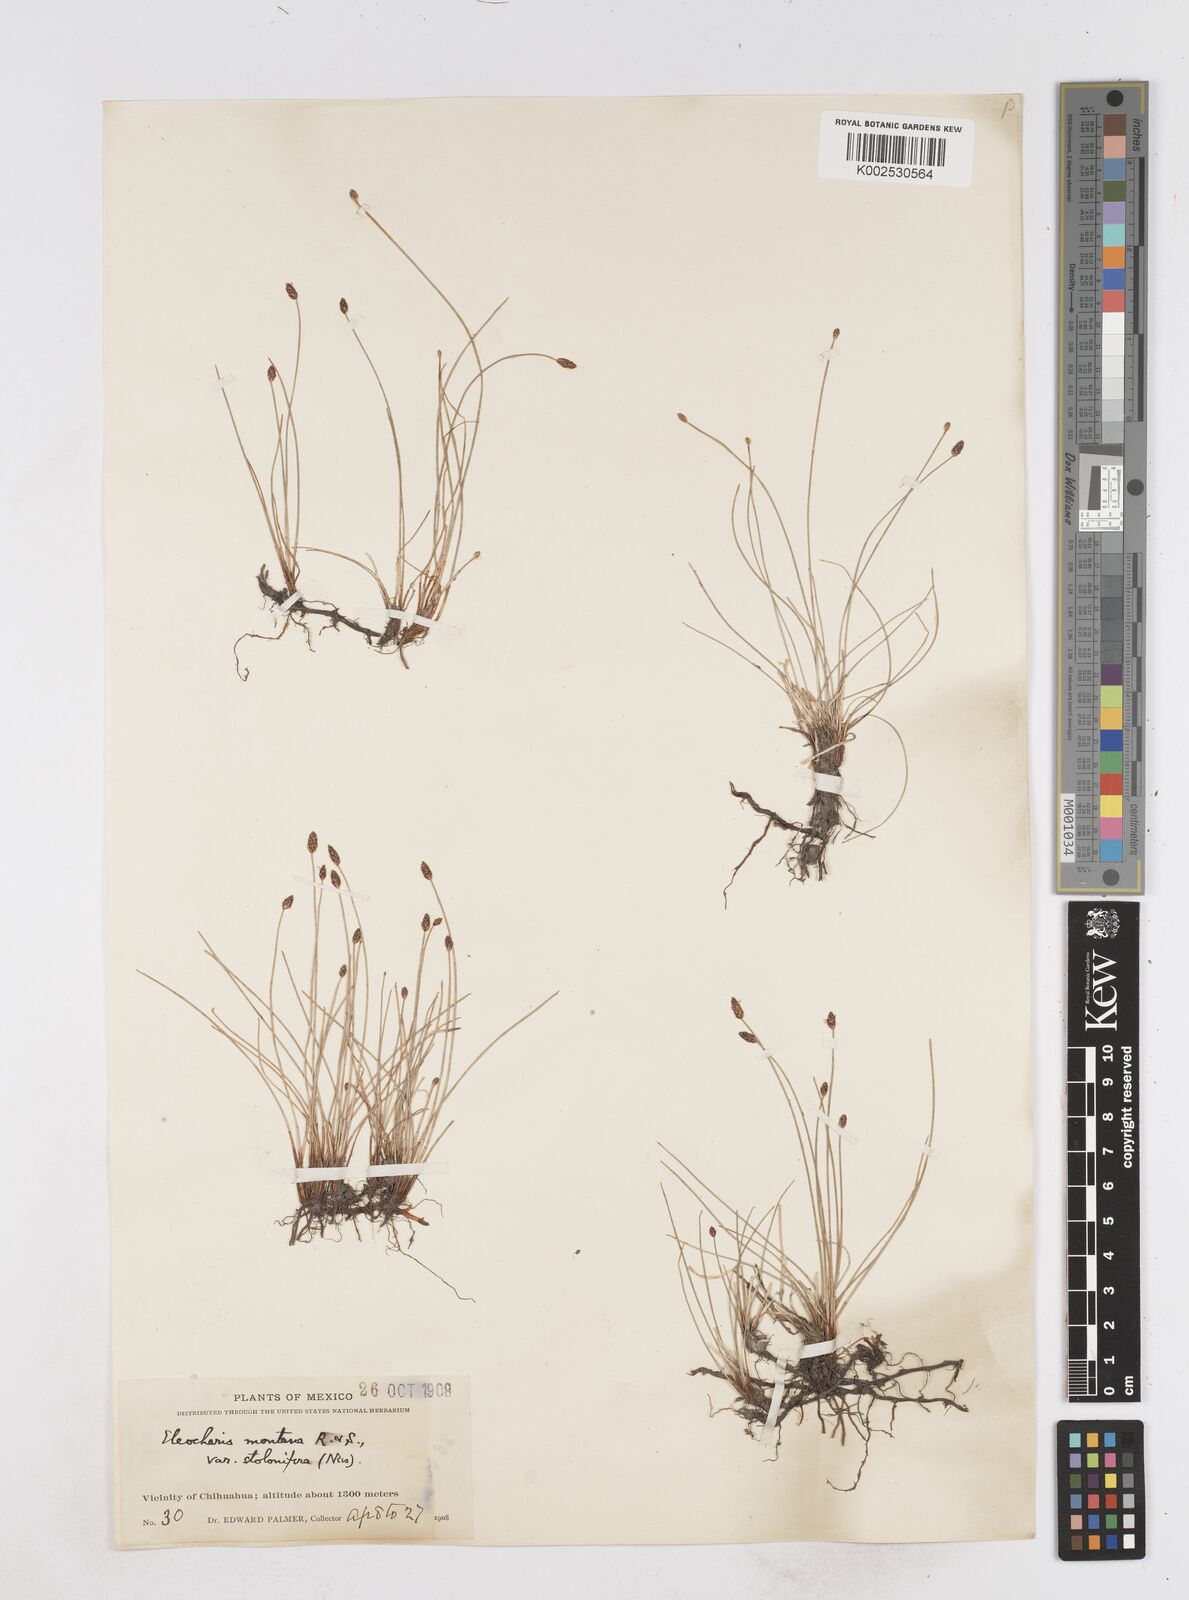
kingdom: Plantae
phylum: Tracheophyta
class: Liliopsida
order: Poales
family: Cyperaceae
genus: Eleocharis
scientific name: Eleocharis montana
